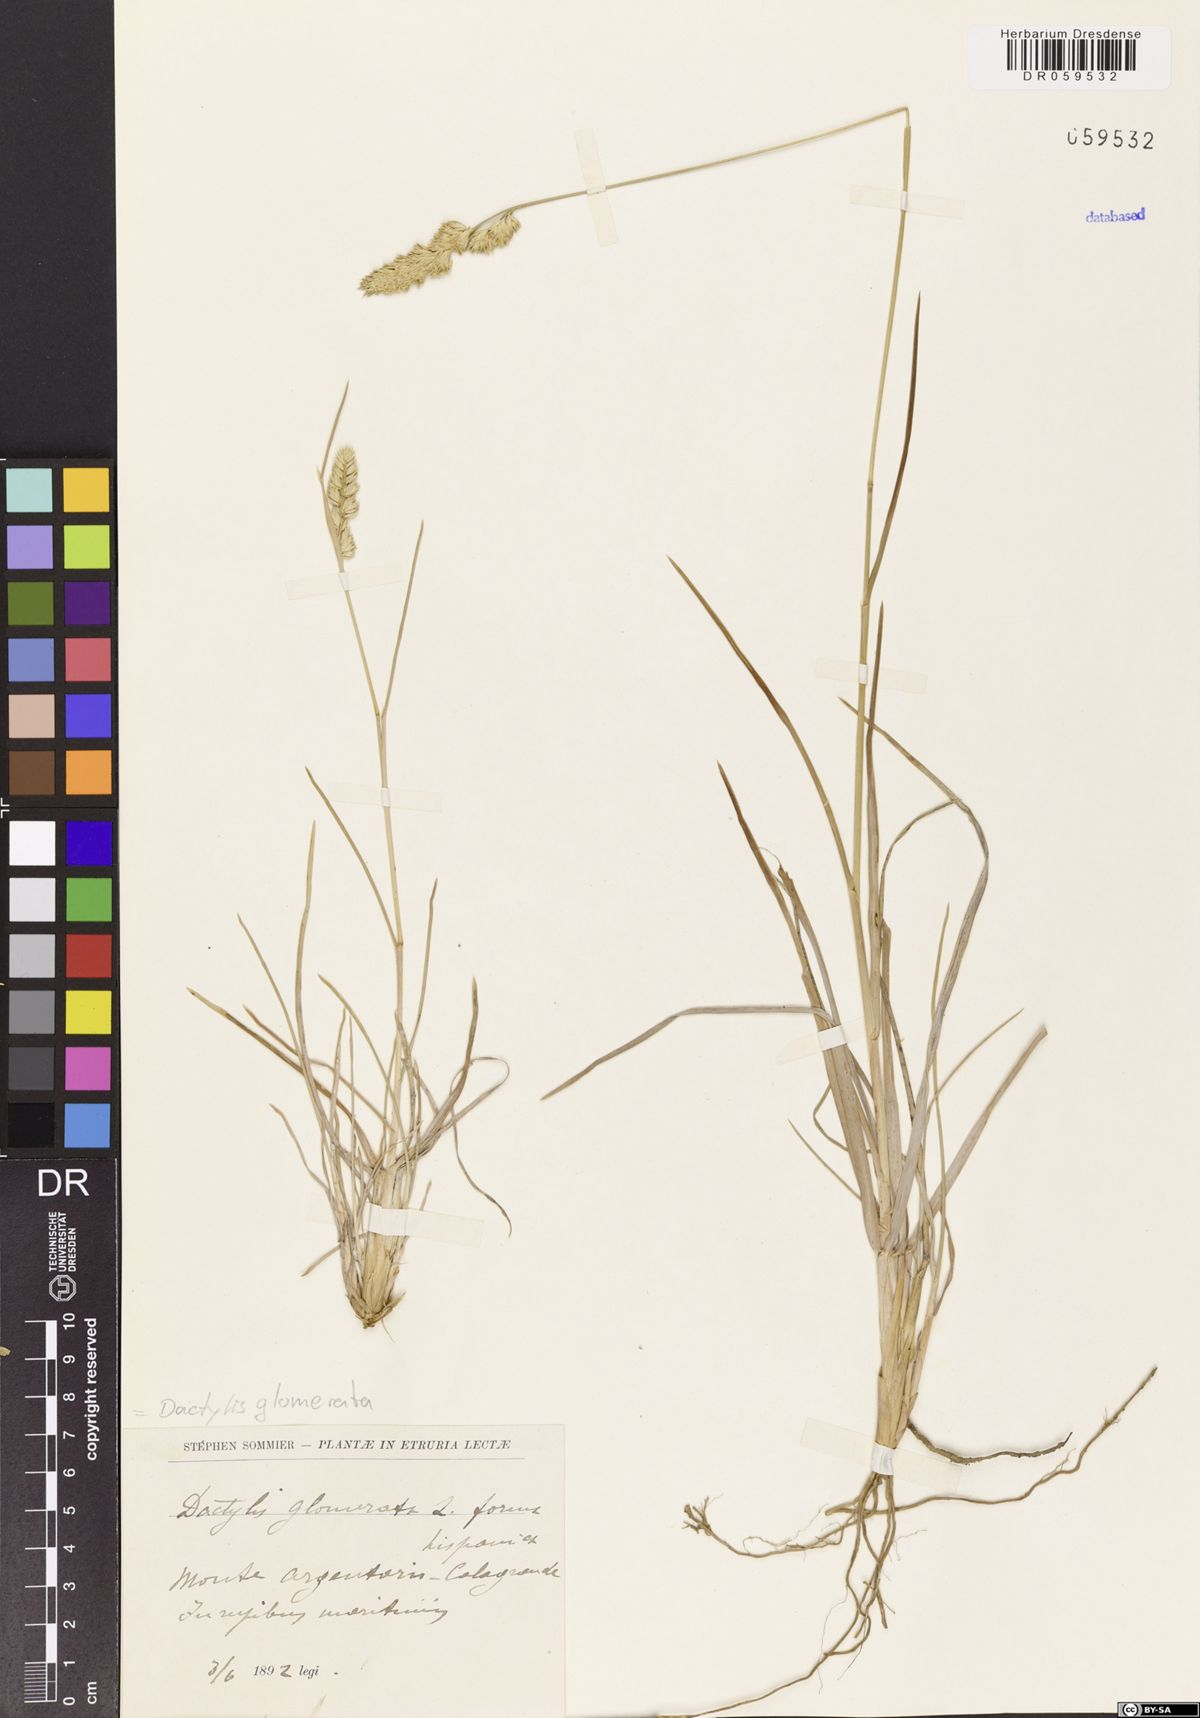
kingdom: Plantae
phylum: Tracheophyta
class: Liliopsida
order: Poales
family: Poaceae
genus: Dactylis
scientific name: Dactylis glomerata
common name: Orchardgrass
